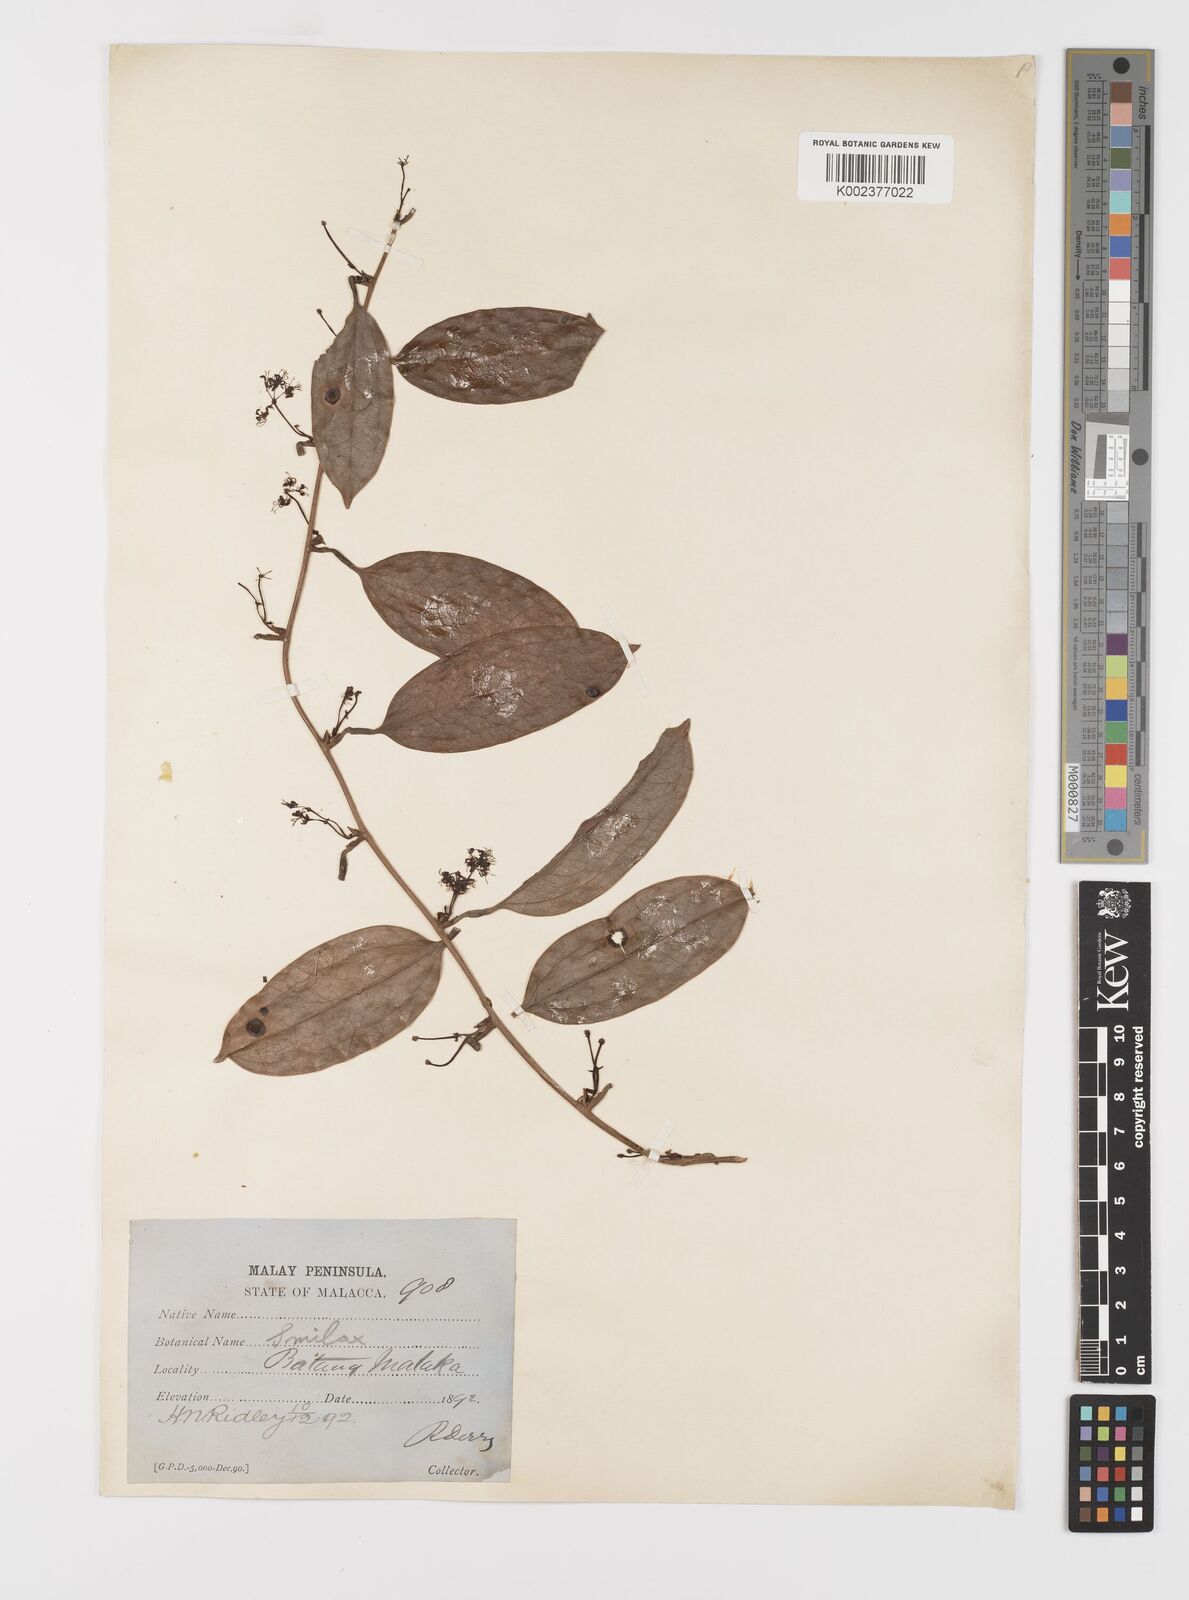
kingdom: Plantae
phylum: Tracheophyta
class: Liliopsida
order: Liliales
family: Smilacaceae
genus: Smilax
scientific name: Smilax laevis
